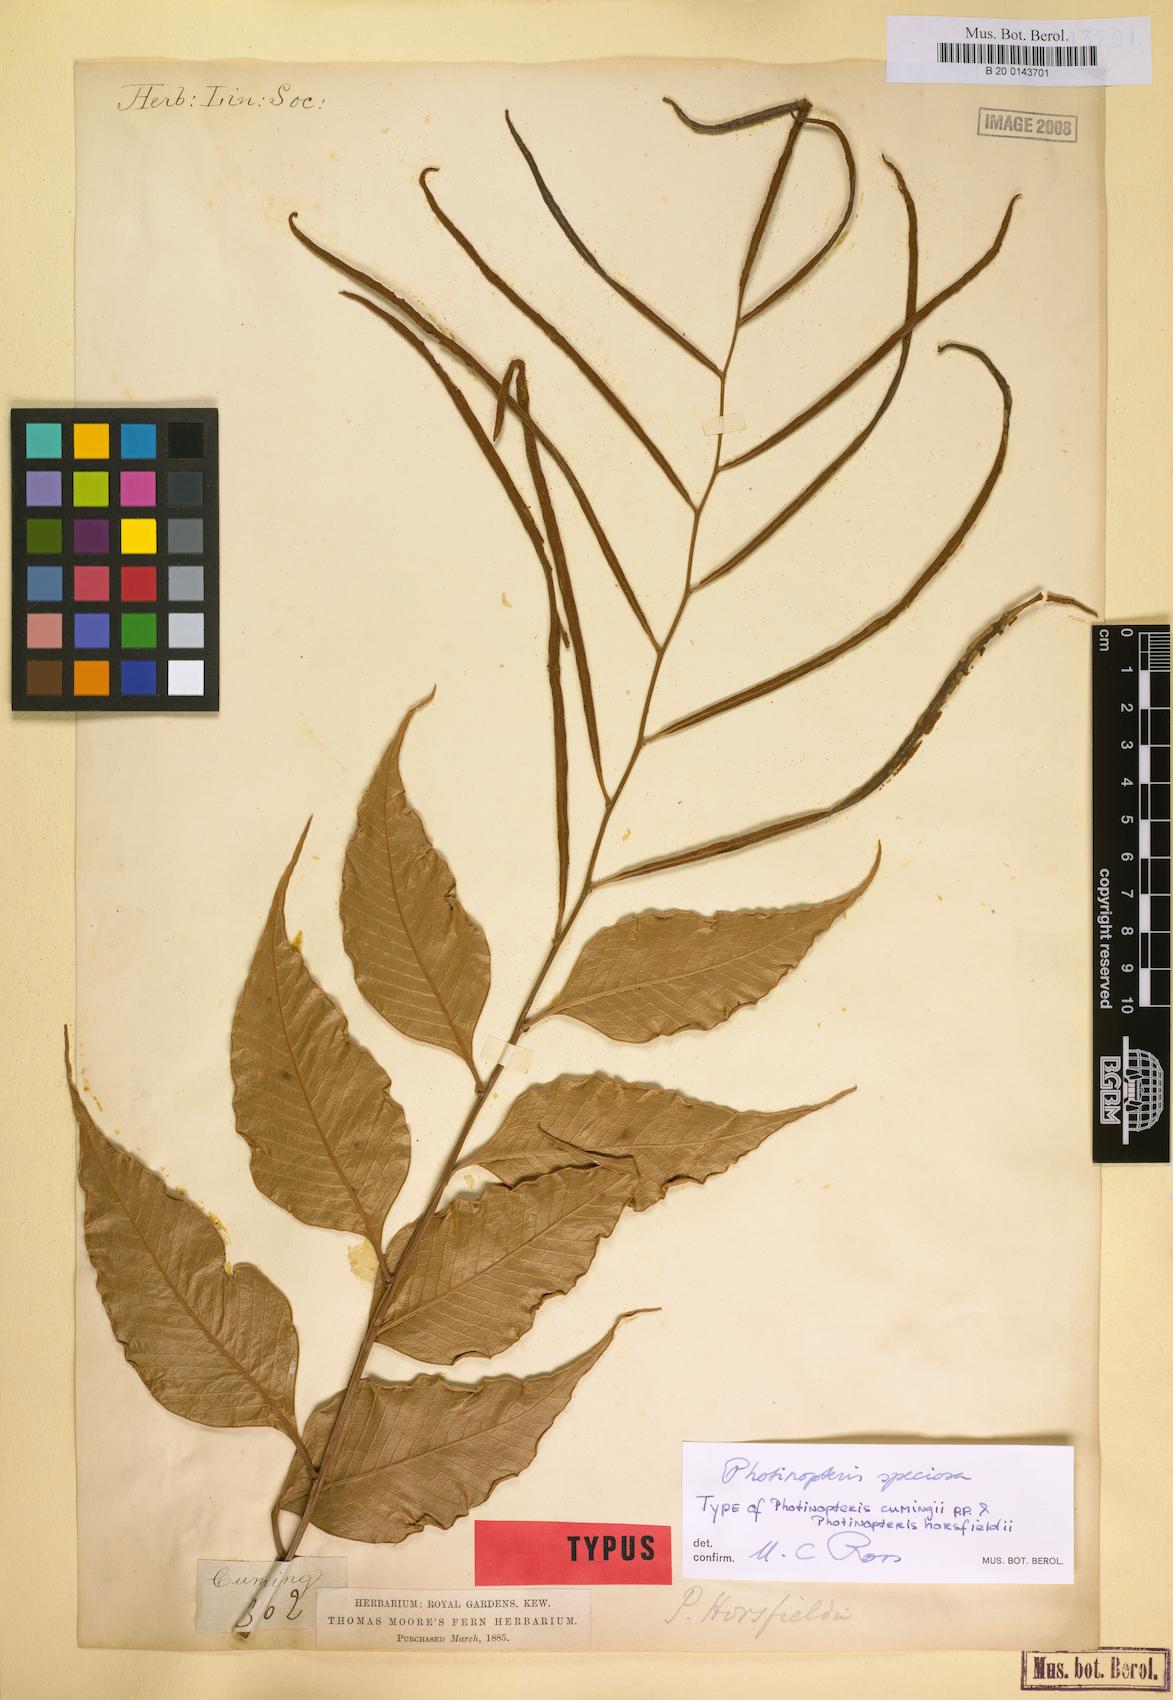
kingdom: Plantae
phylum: Tracheophyta
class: Polypodiopsida
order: Polypodiales
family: Polypodiaceae
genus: Drynaria
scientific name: Drynaria speciosa
